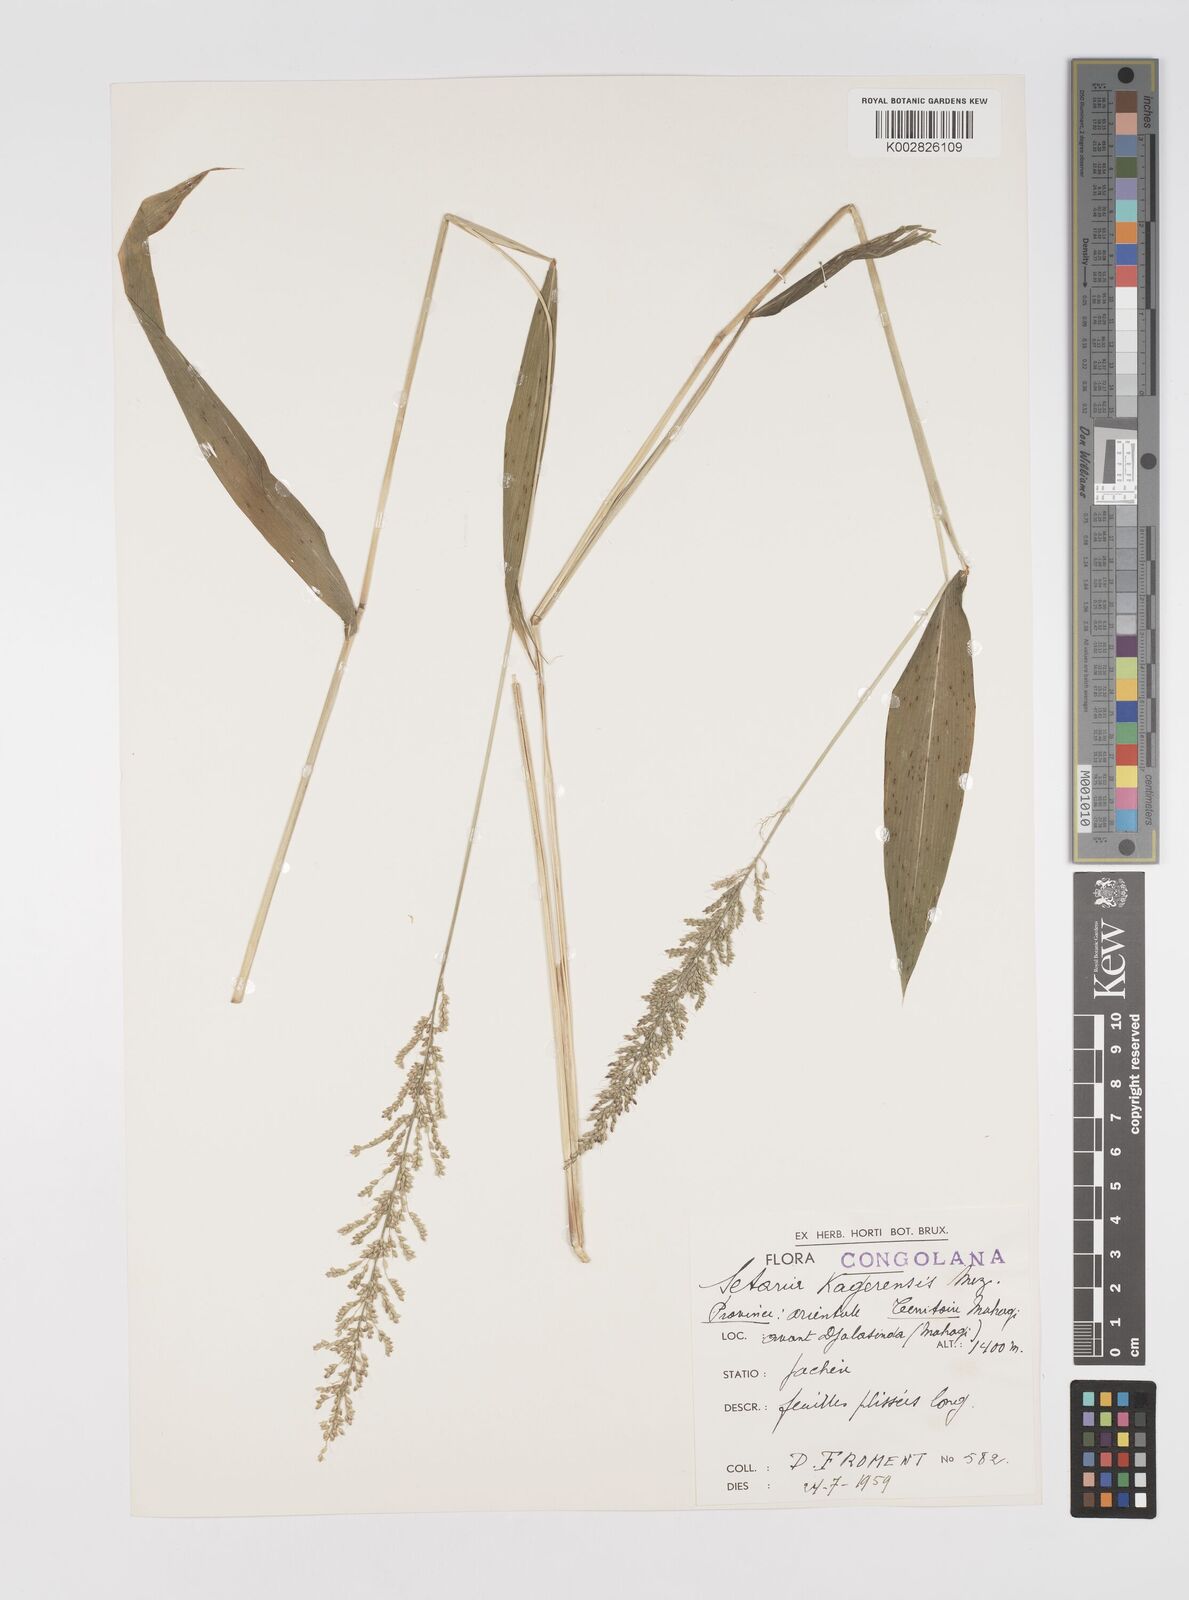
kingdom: Plantae
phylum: Tracheophyta
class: Liliopsida
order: Poales
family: Poaceae
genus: Setaria
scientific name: Setaria kagerensis
